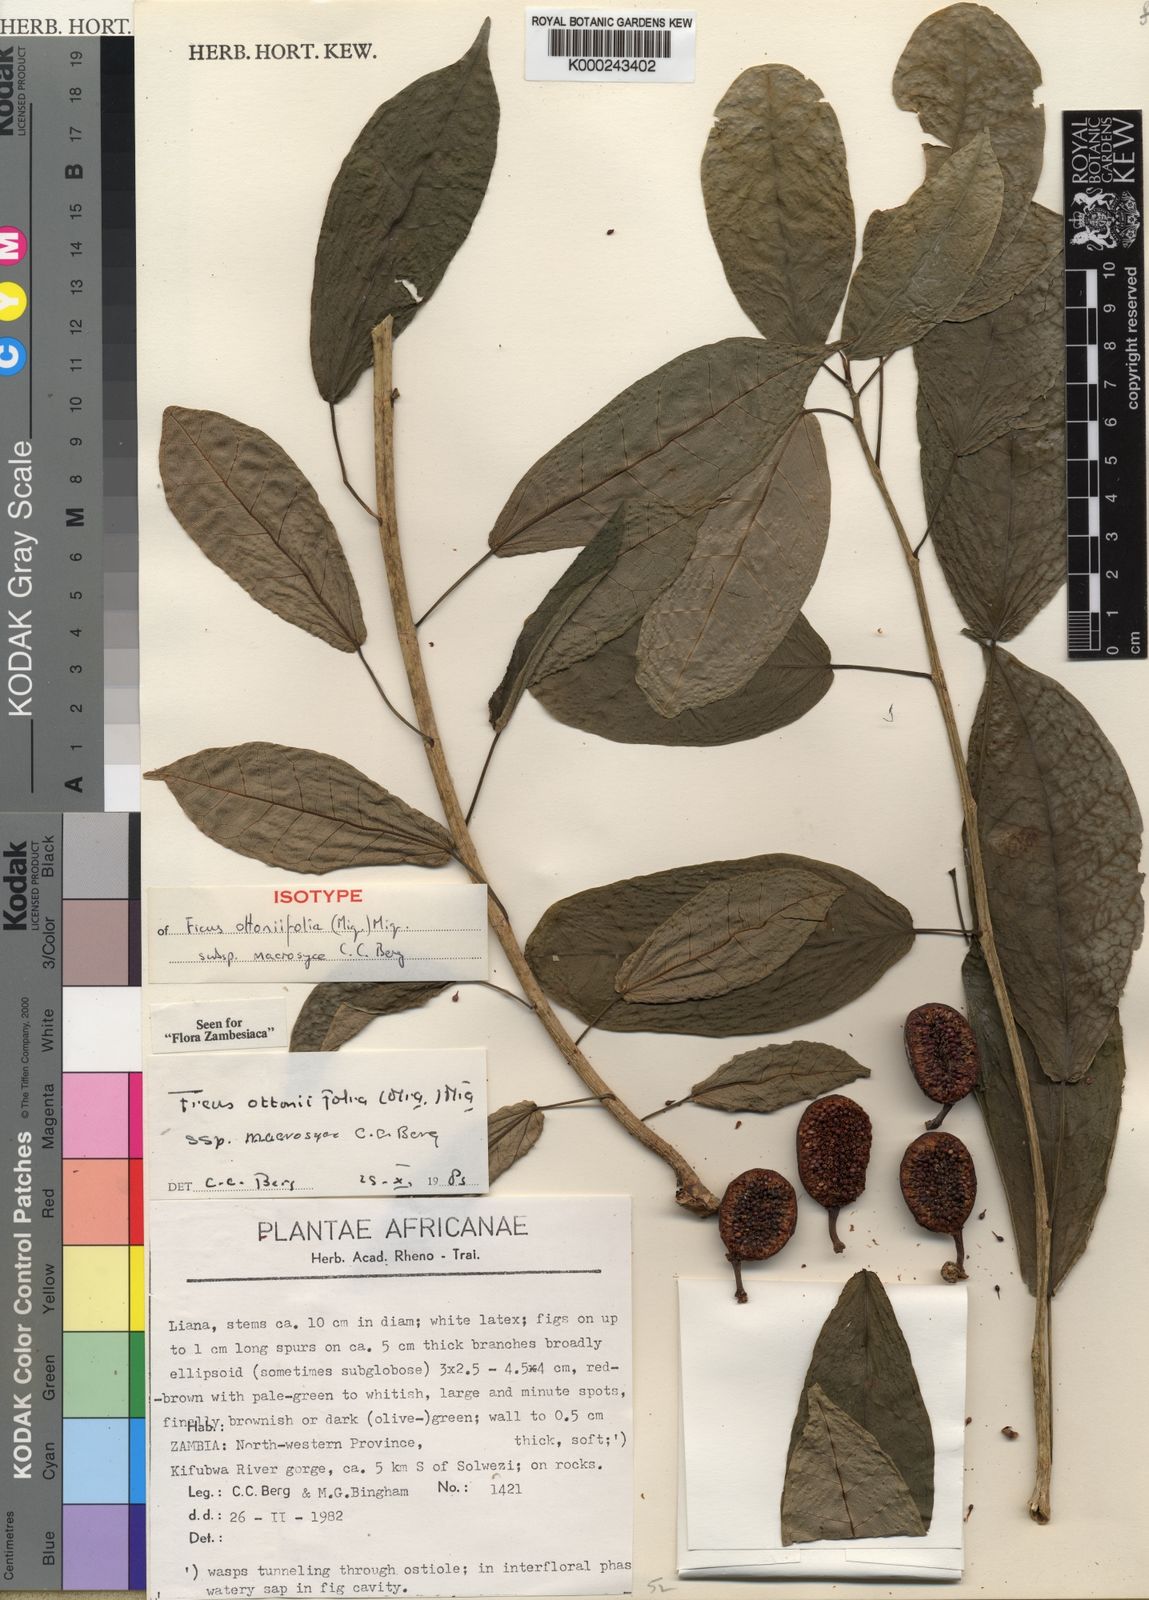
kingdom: Plantae
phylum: Tracheophyta
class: Magnoliopsida
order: Rosales
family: Moraceae
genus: Ficus
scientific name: Ficus ottoniifolia
